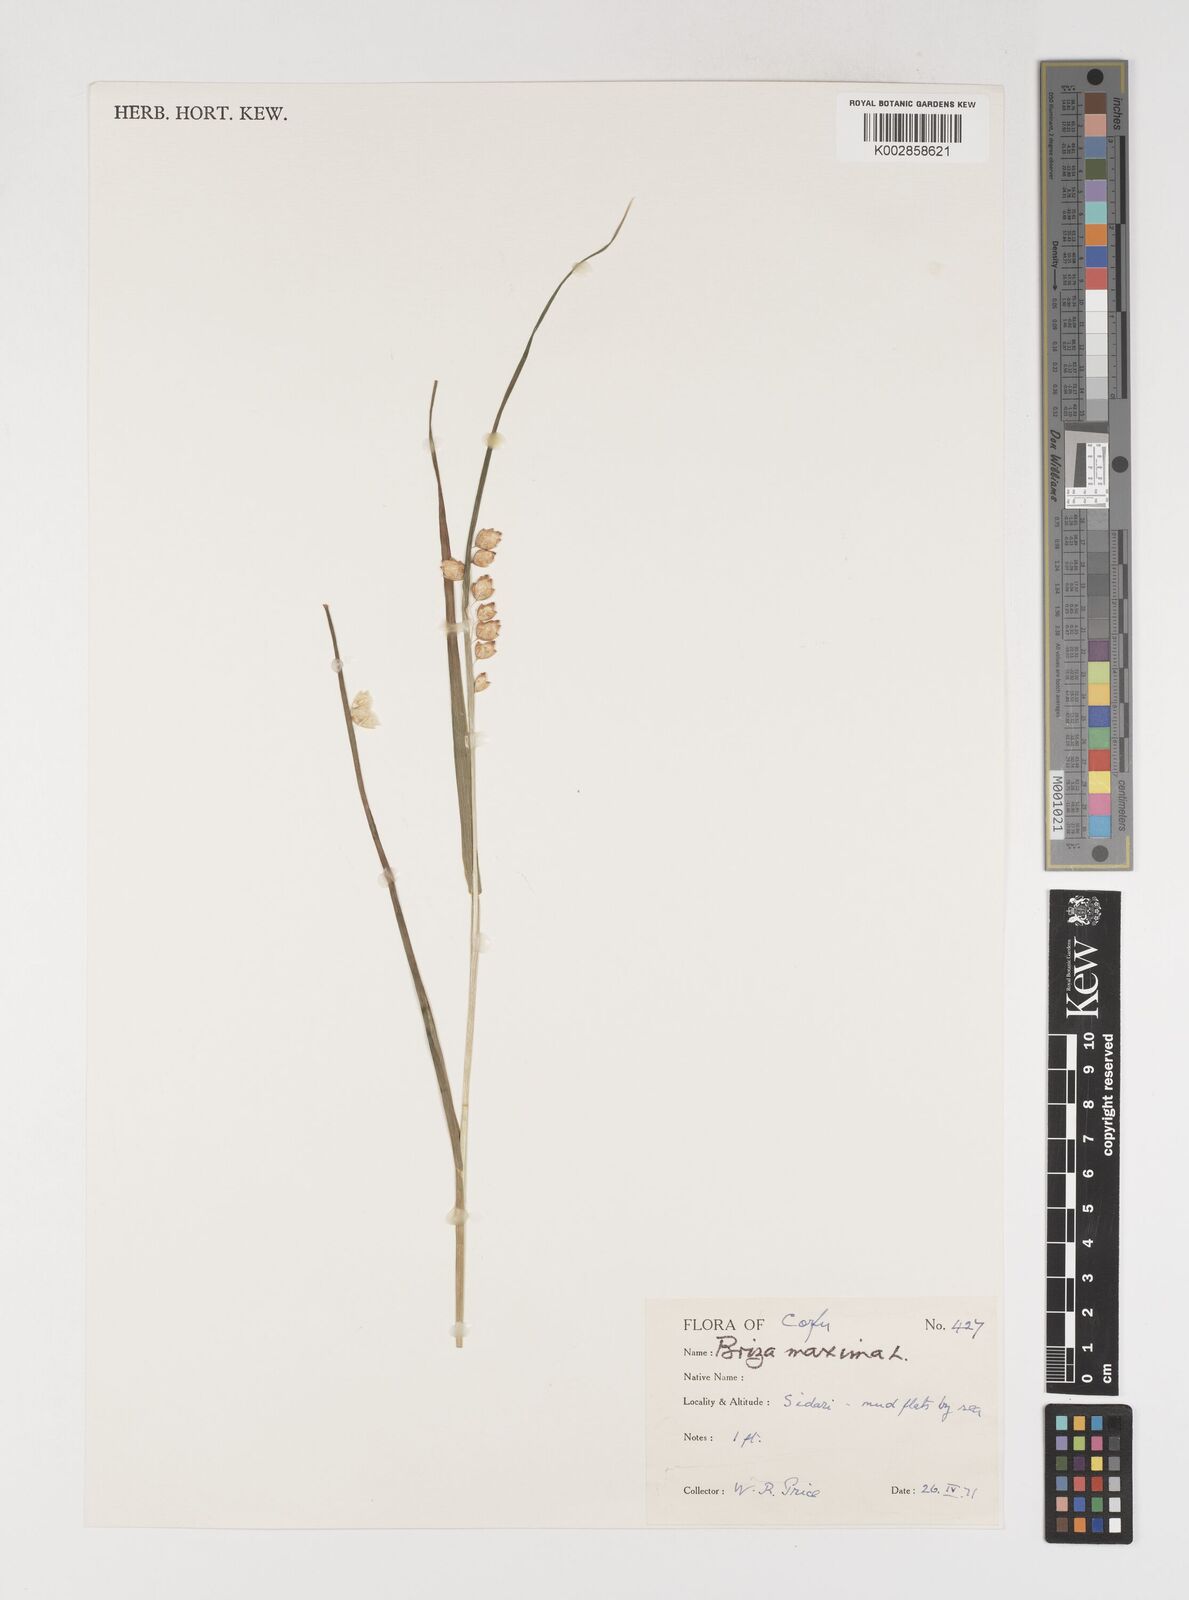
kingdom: Plantae
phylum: Tracheophyta
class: Liliopsida
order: Poales
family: Poaceae
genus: Briza
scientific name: Briza maxima
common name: Big quakinggrass
